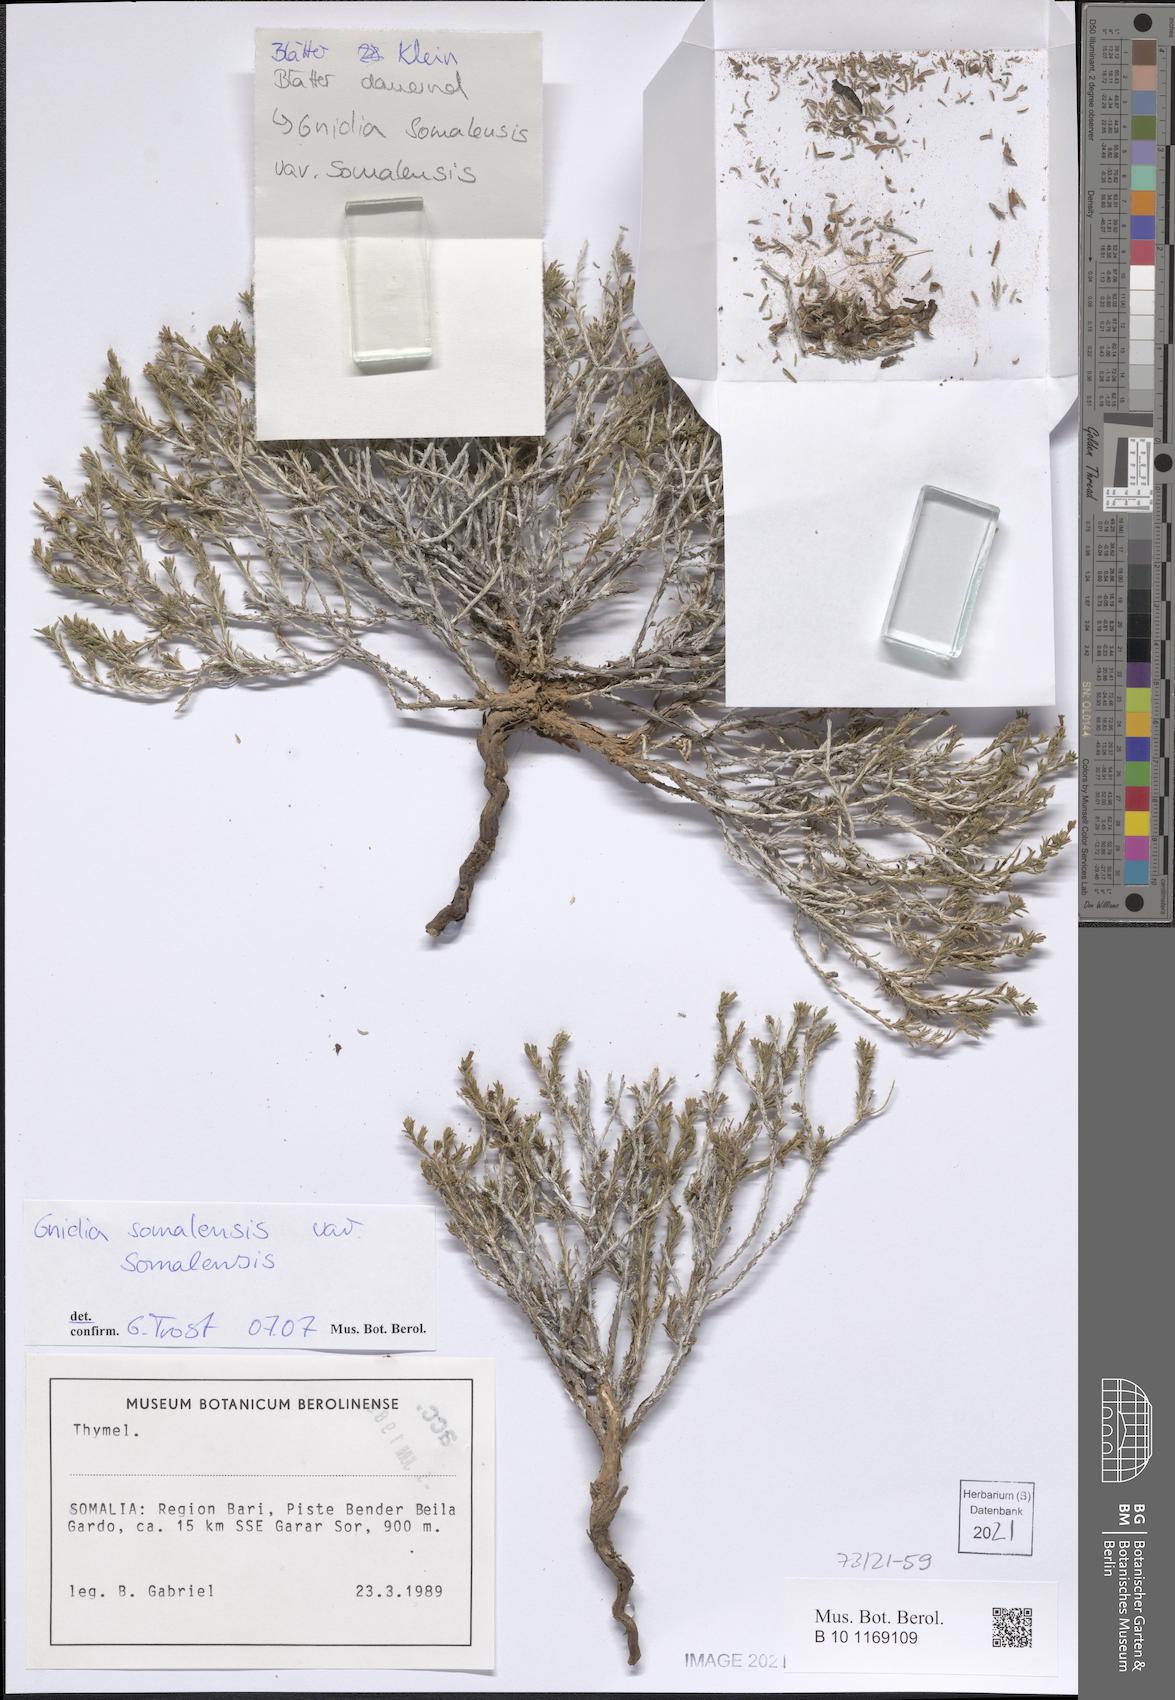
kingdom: Plantae
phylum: Tracheophyta
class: Magnoliopsida
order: Boraginales
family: Boraginaceae
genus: Echiochilon
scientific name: Echiochilon collenettei
